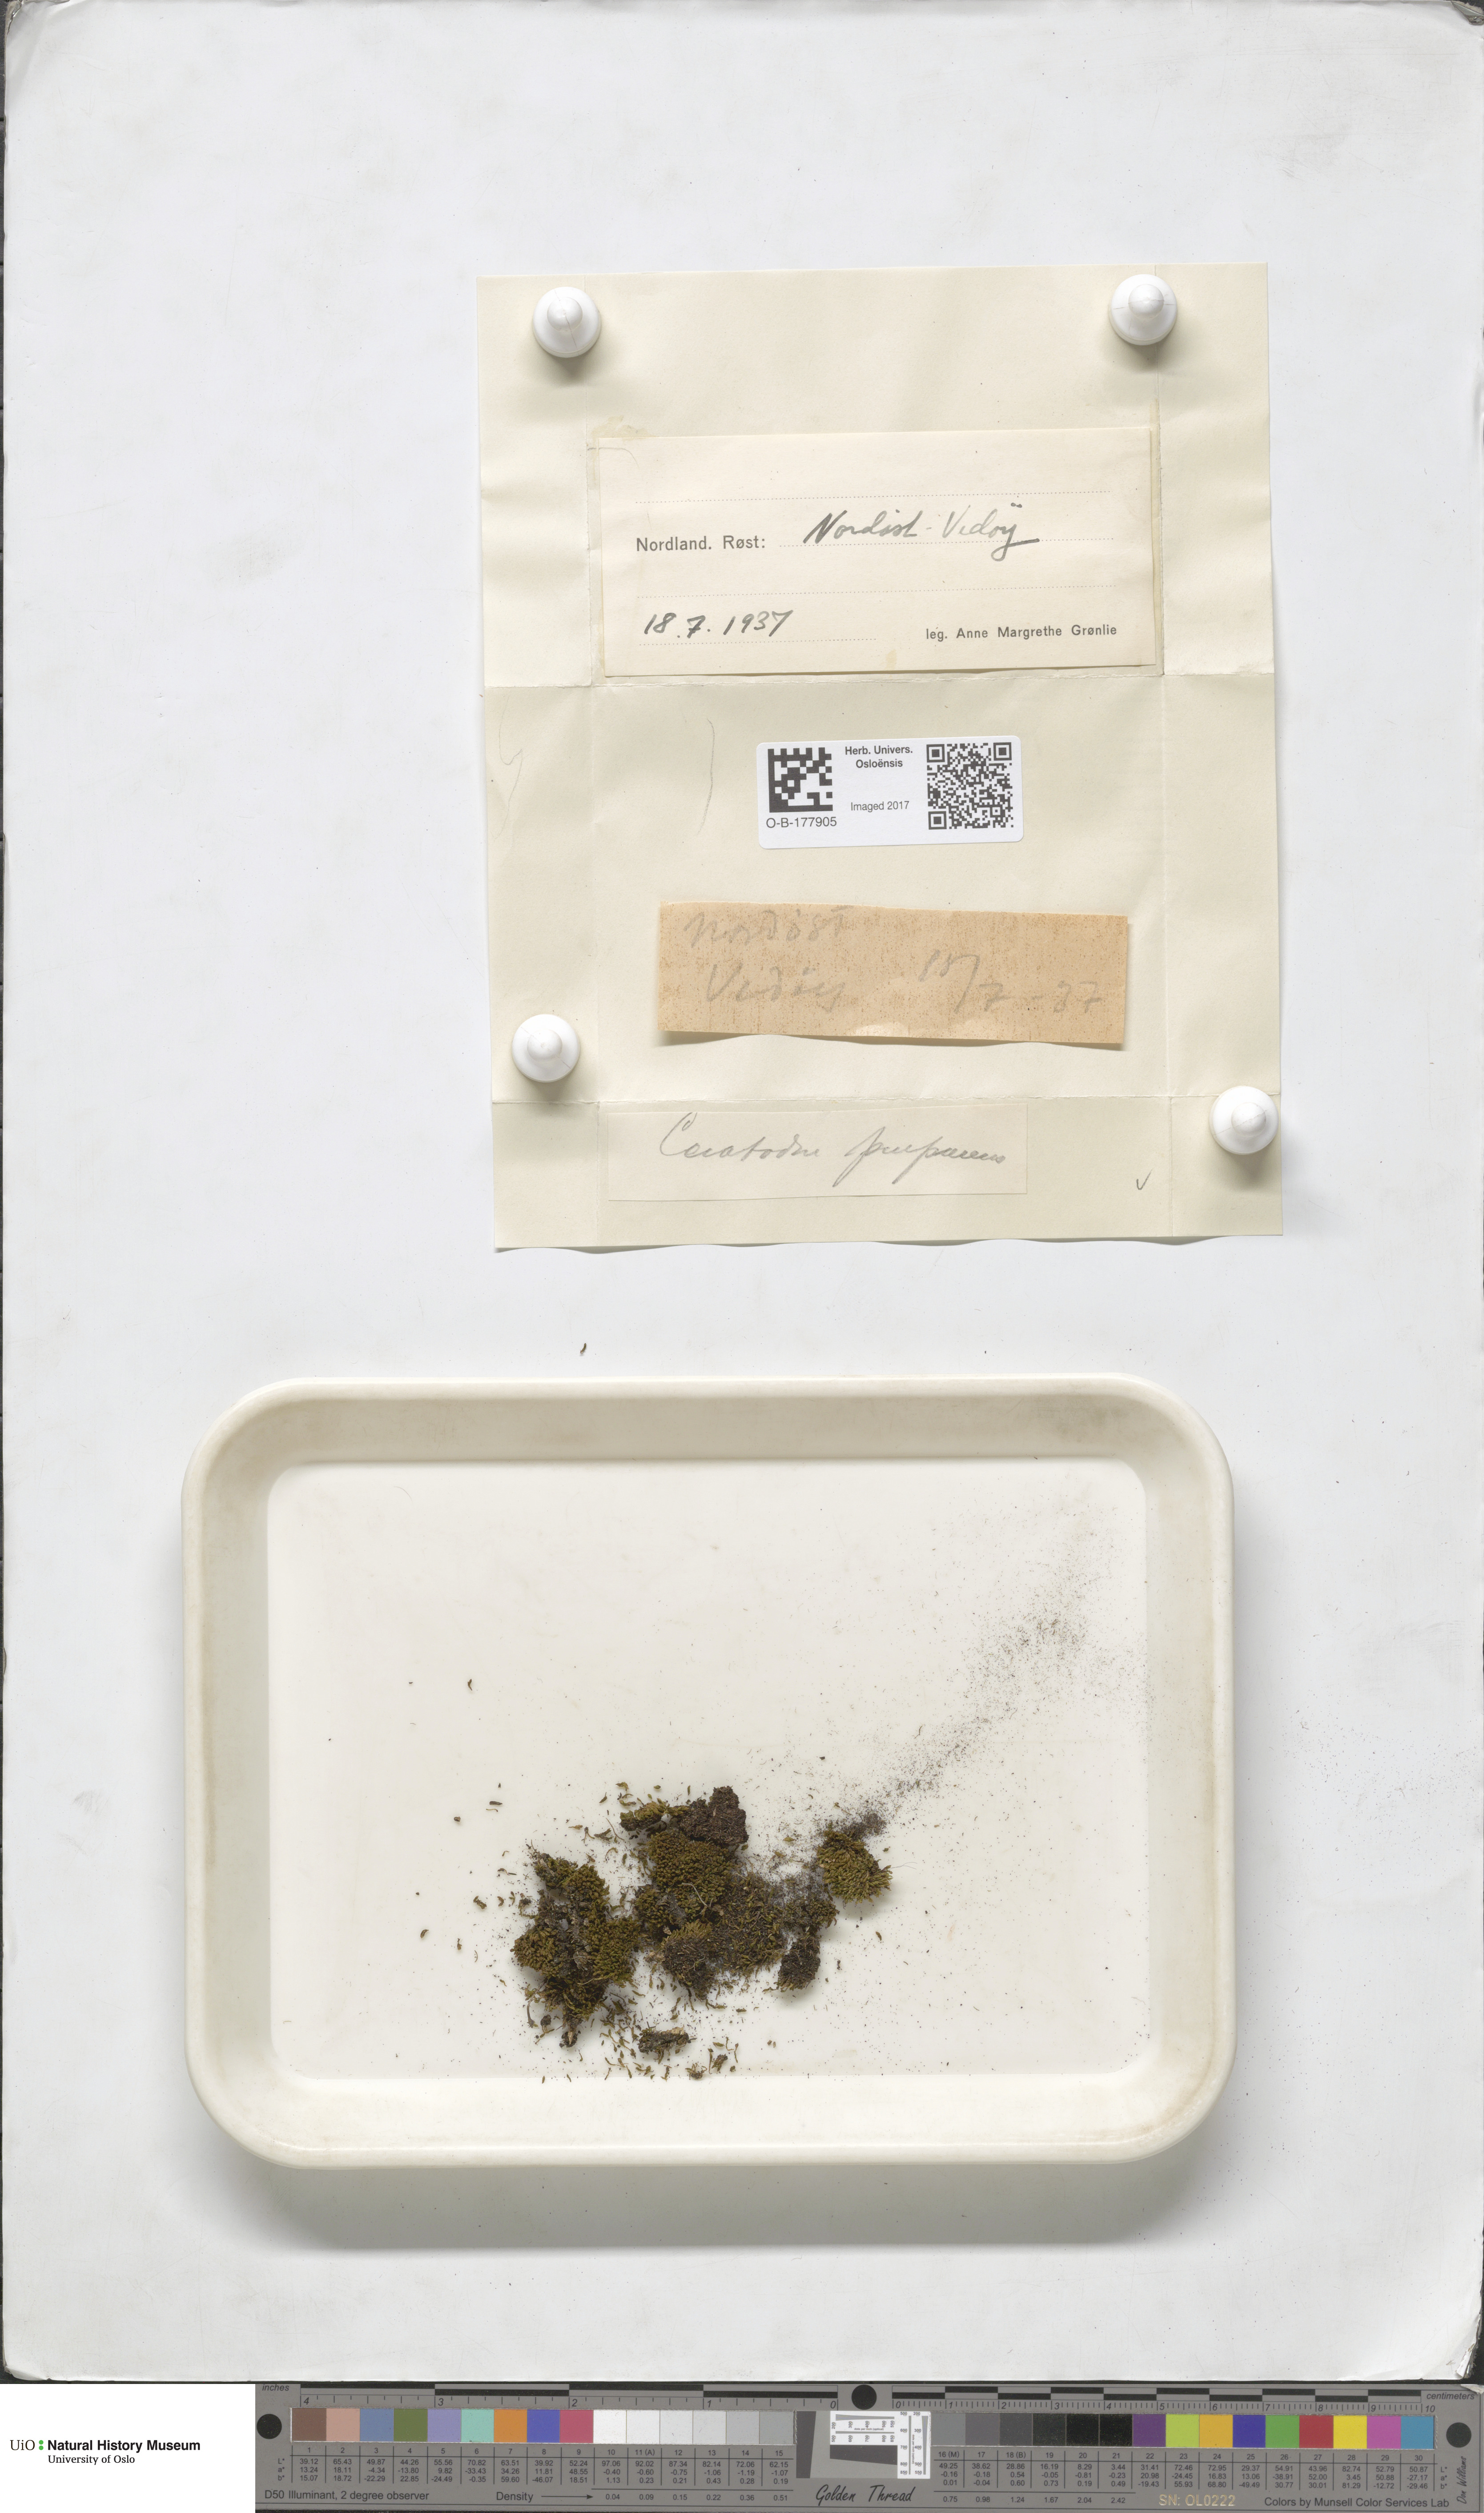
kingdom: Plantae
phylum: Bryophyta
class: Bryopsida
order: Dicranales
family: Ditrichaceae
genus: Ceratodon
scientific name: Ceratodon purpureus
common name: Redshank
